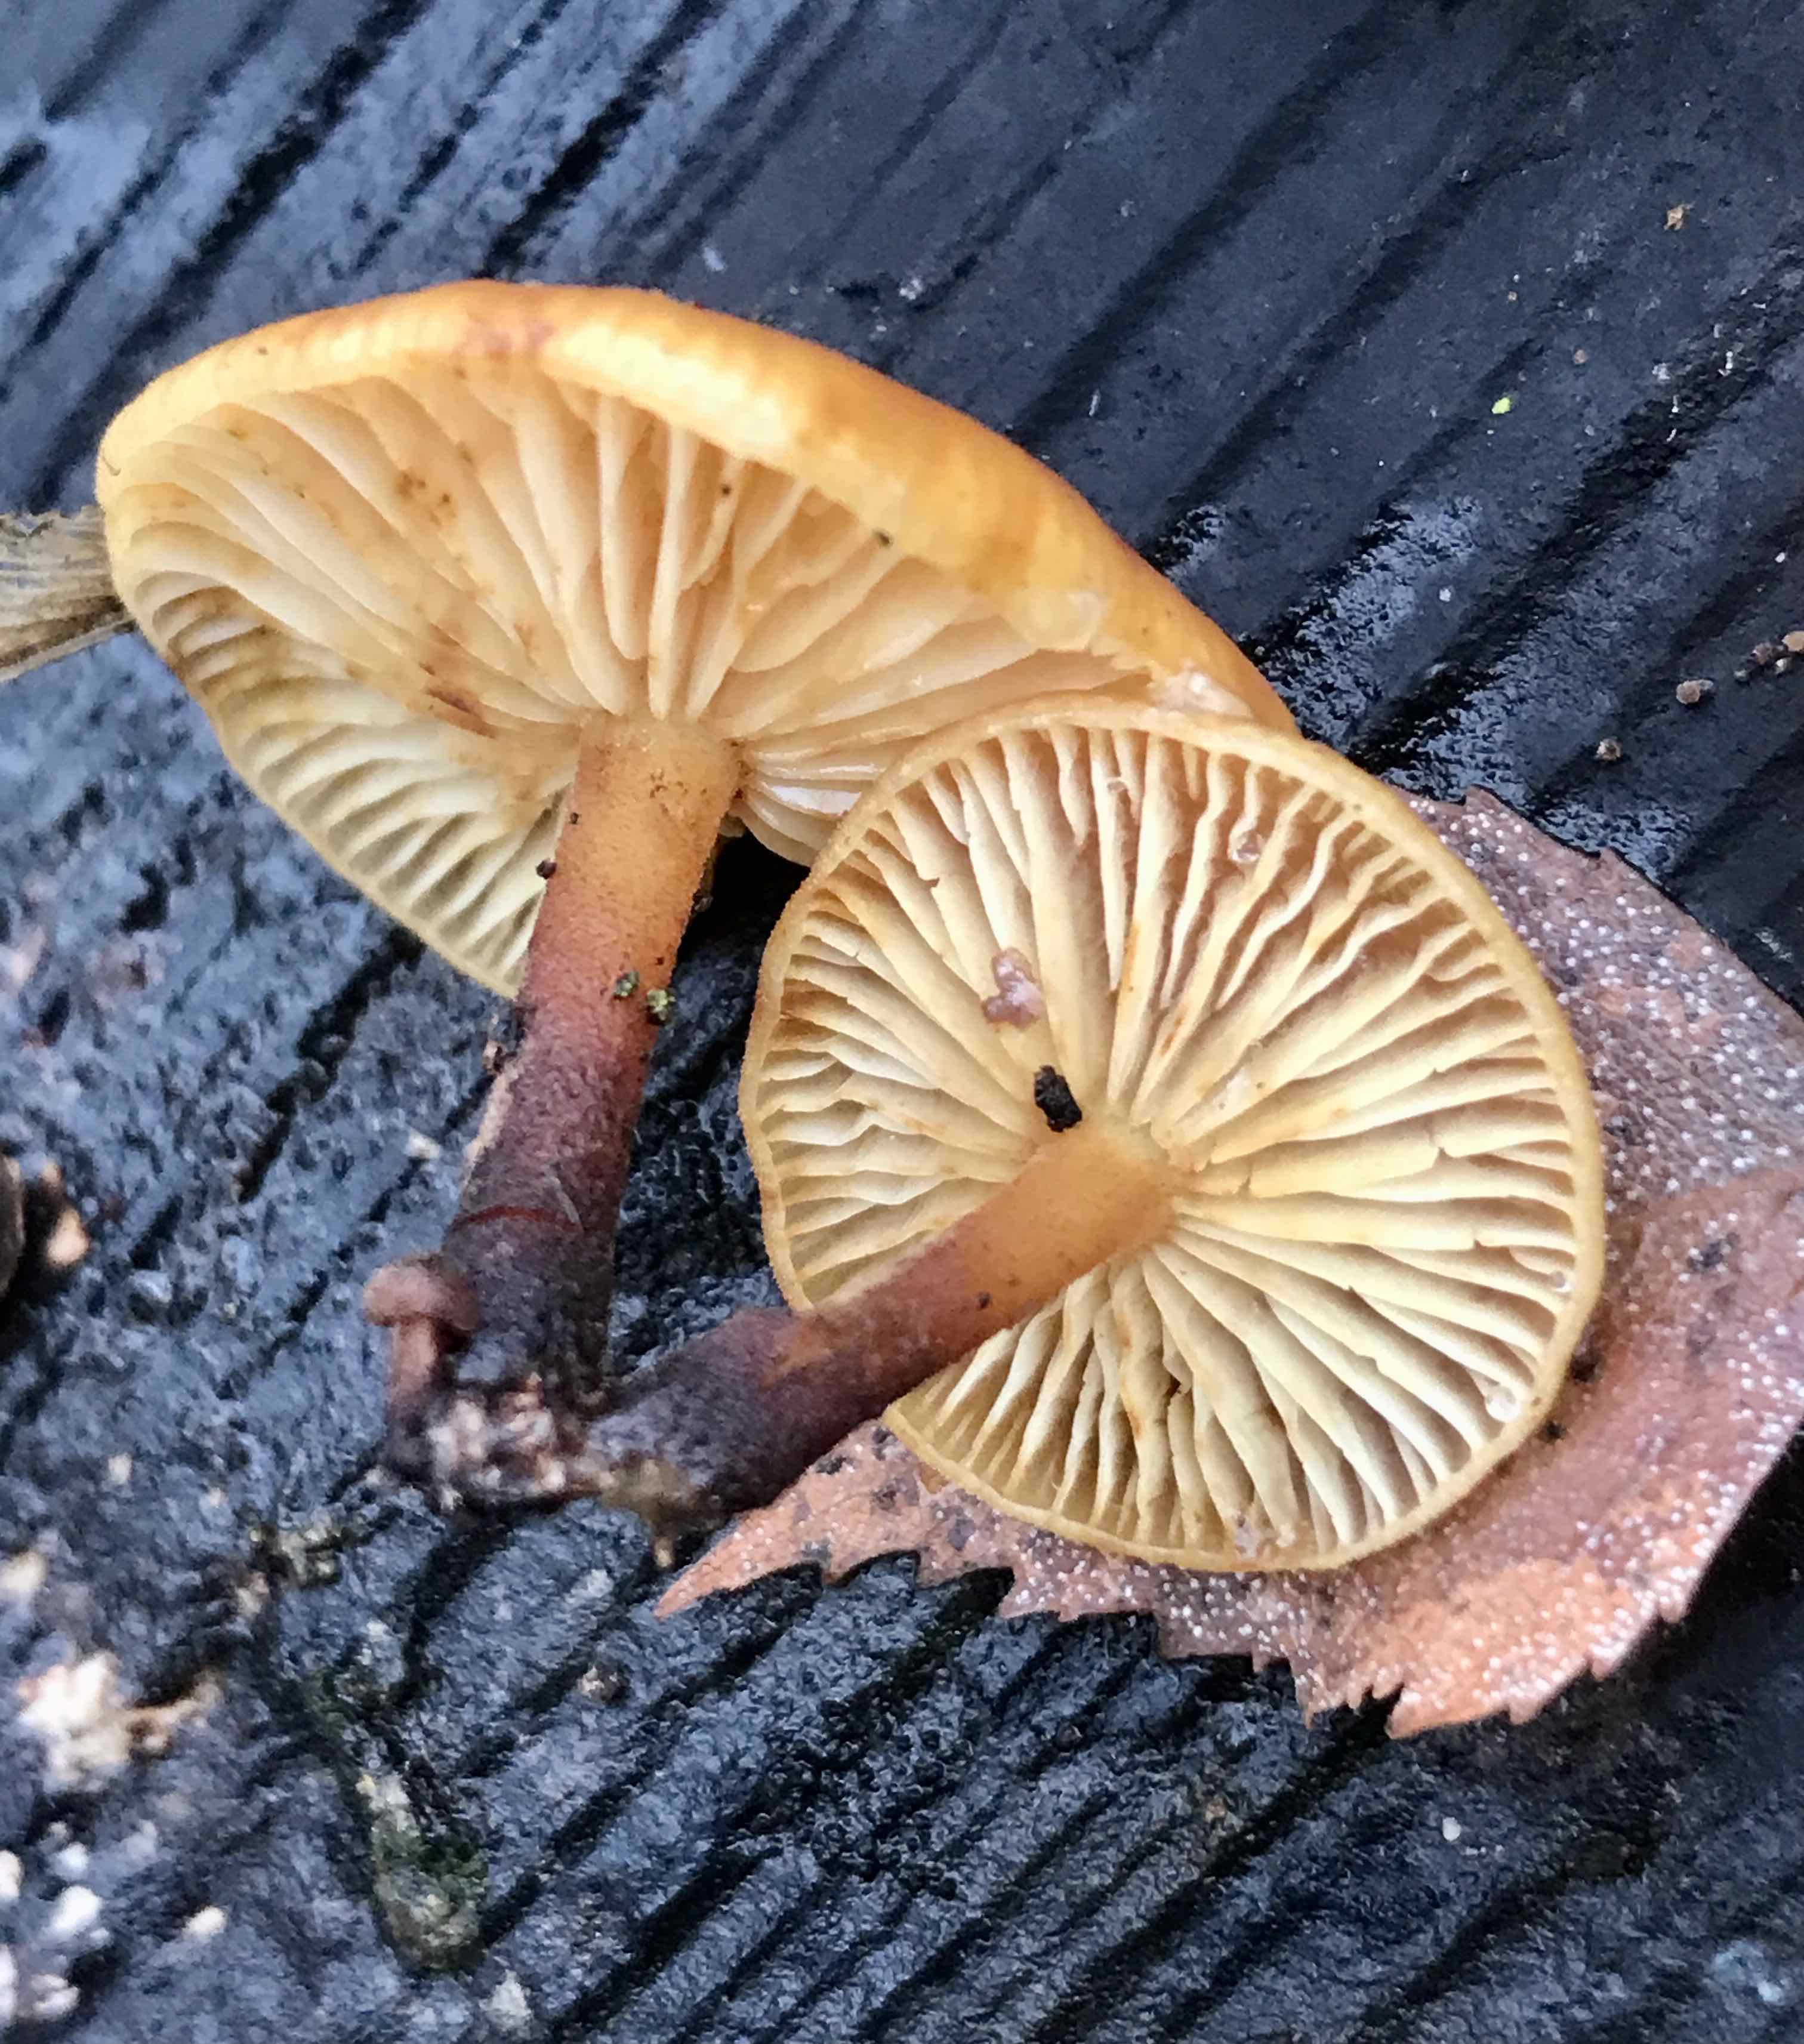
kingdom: Fungi
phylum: Basidiomycota
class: Agaricomycetes
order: Agaricales
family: Physalacriaceae
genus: Flammulina
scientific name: Flammulina velutipes
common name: gul fløjlsfod
